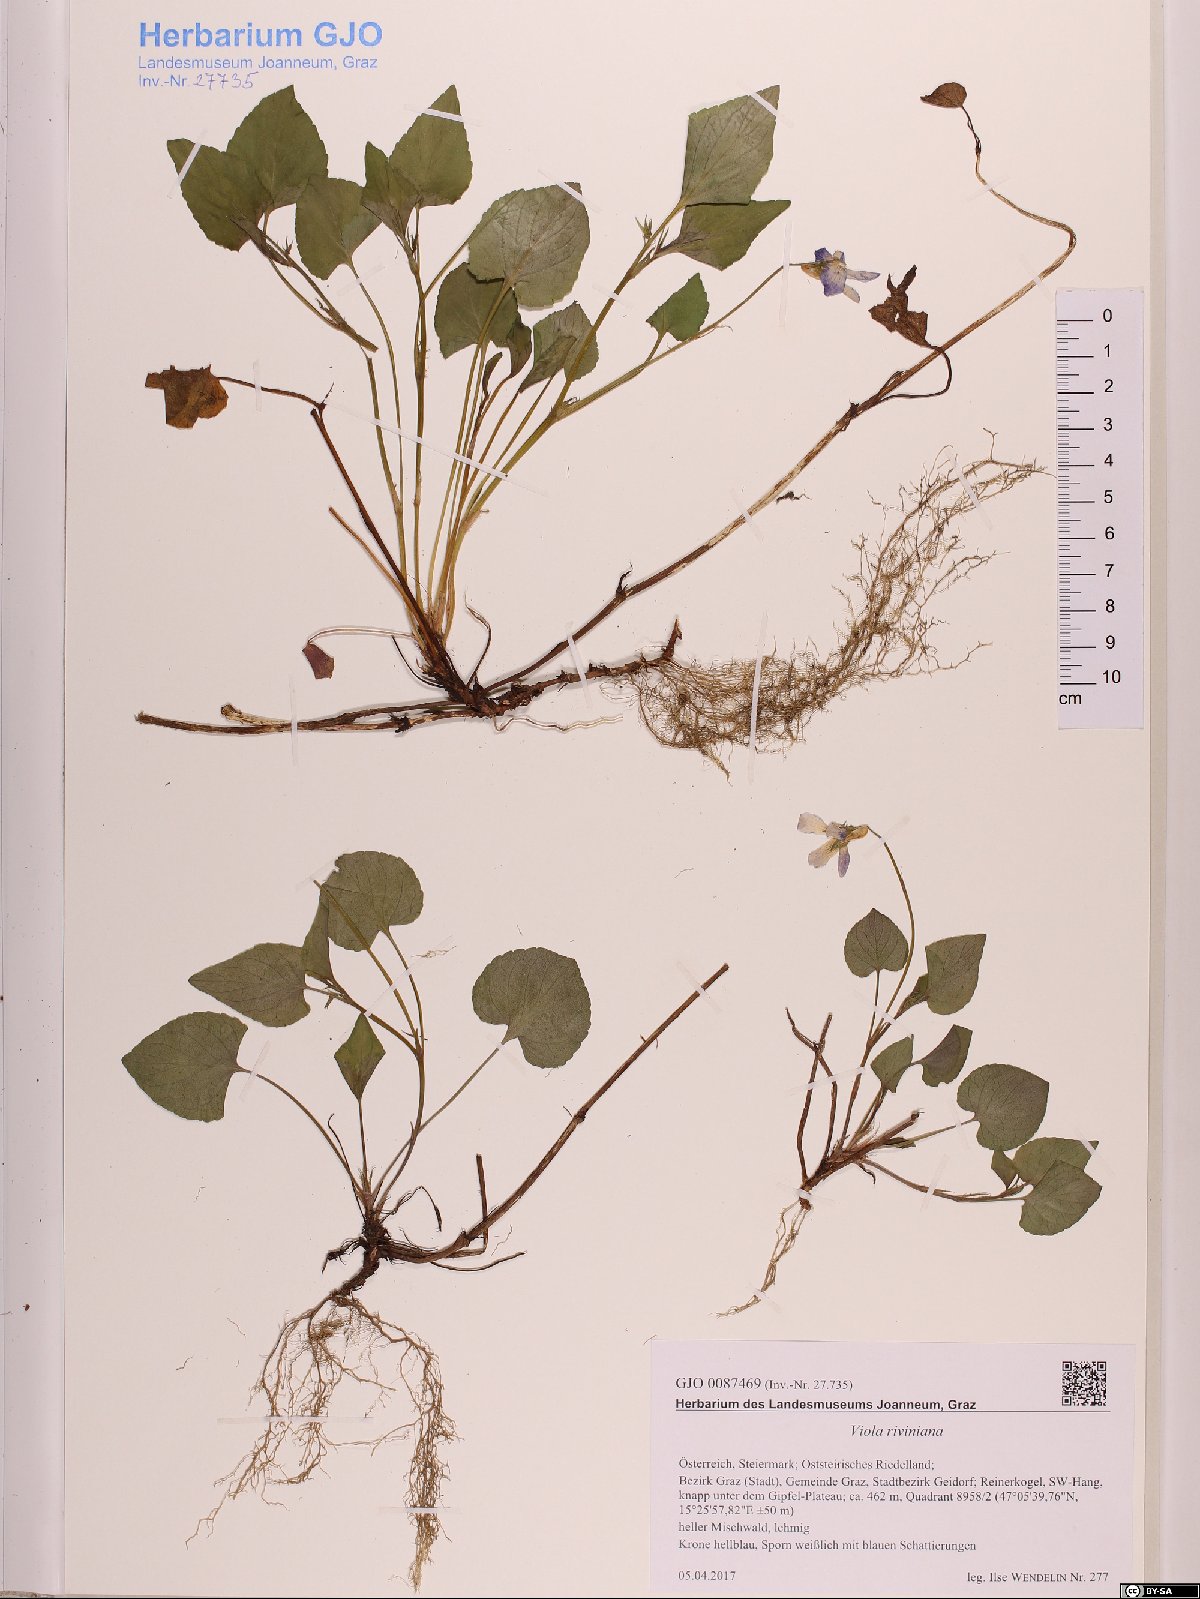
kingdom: Plantae
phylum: Tracheophyta
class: Magnoliopsida
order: Malpighiales
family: Violaceae
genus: Viola
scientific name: Viola riviniana
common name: Common dog-violet
